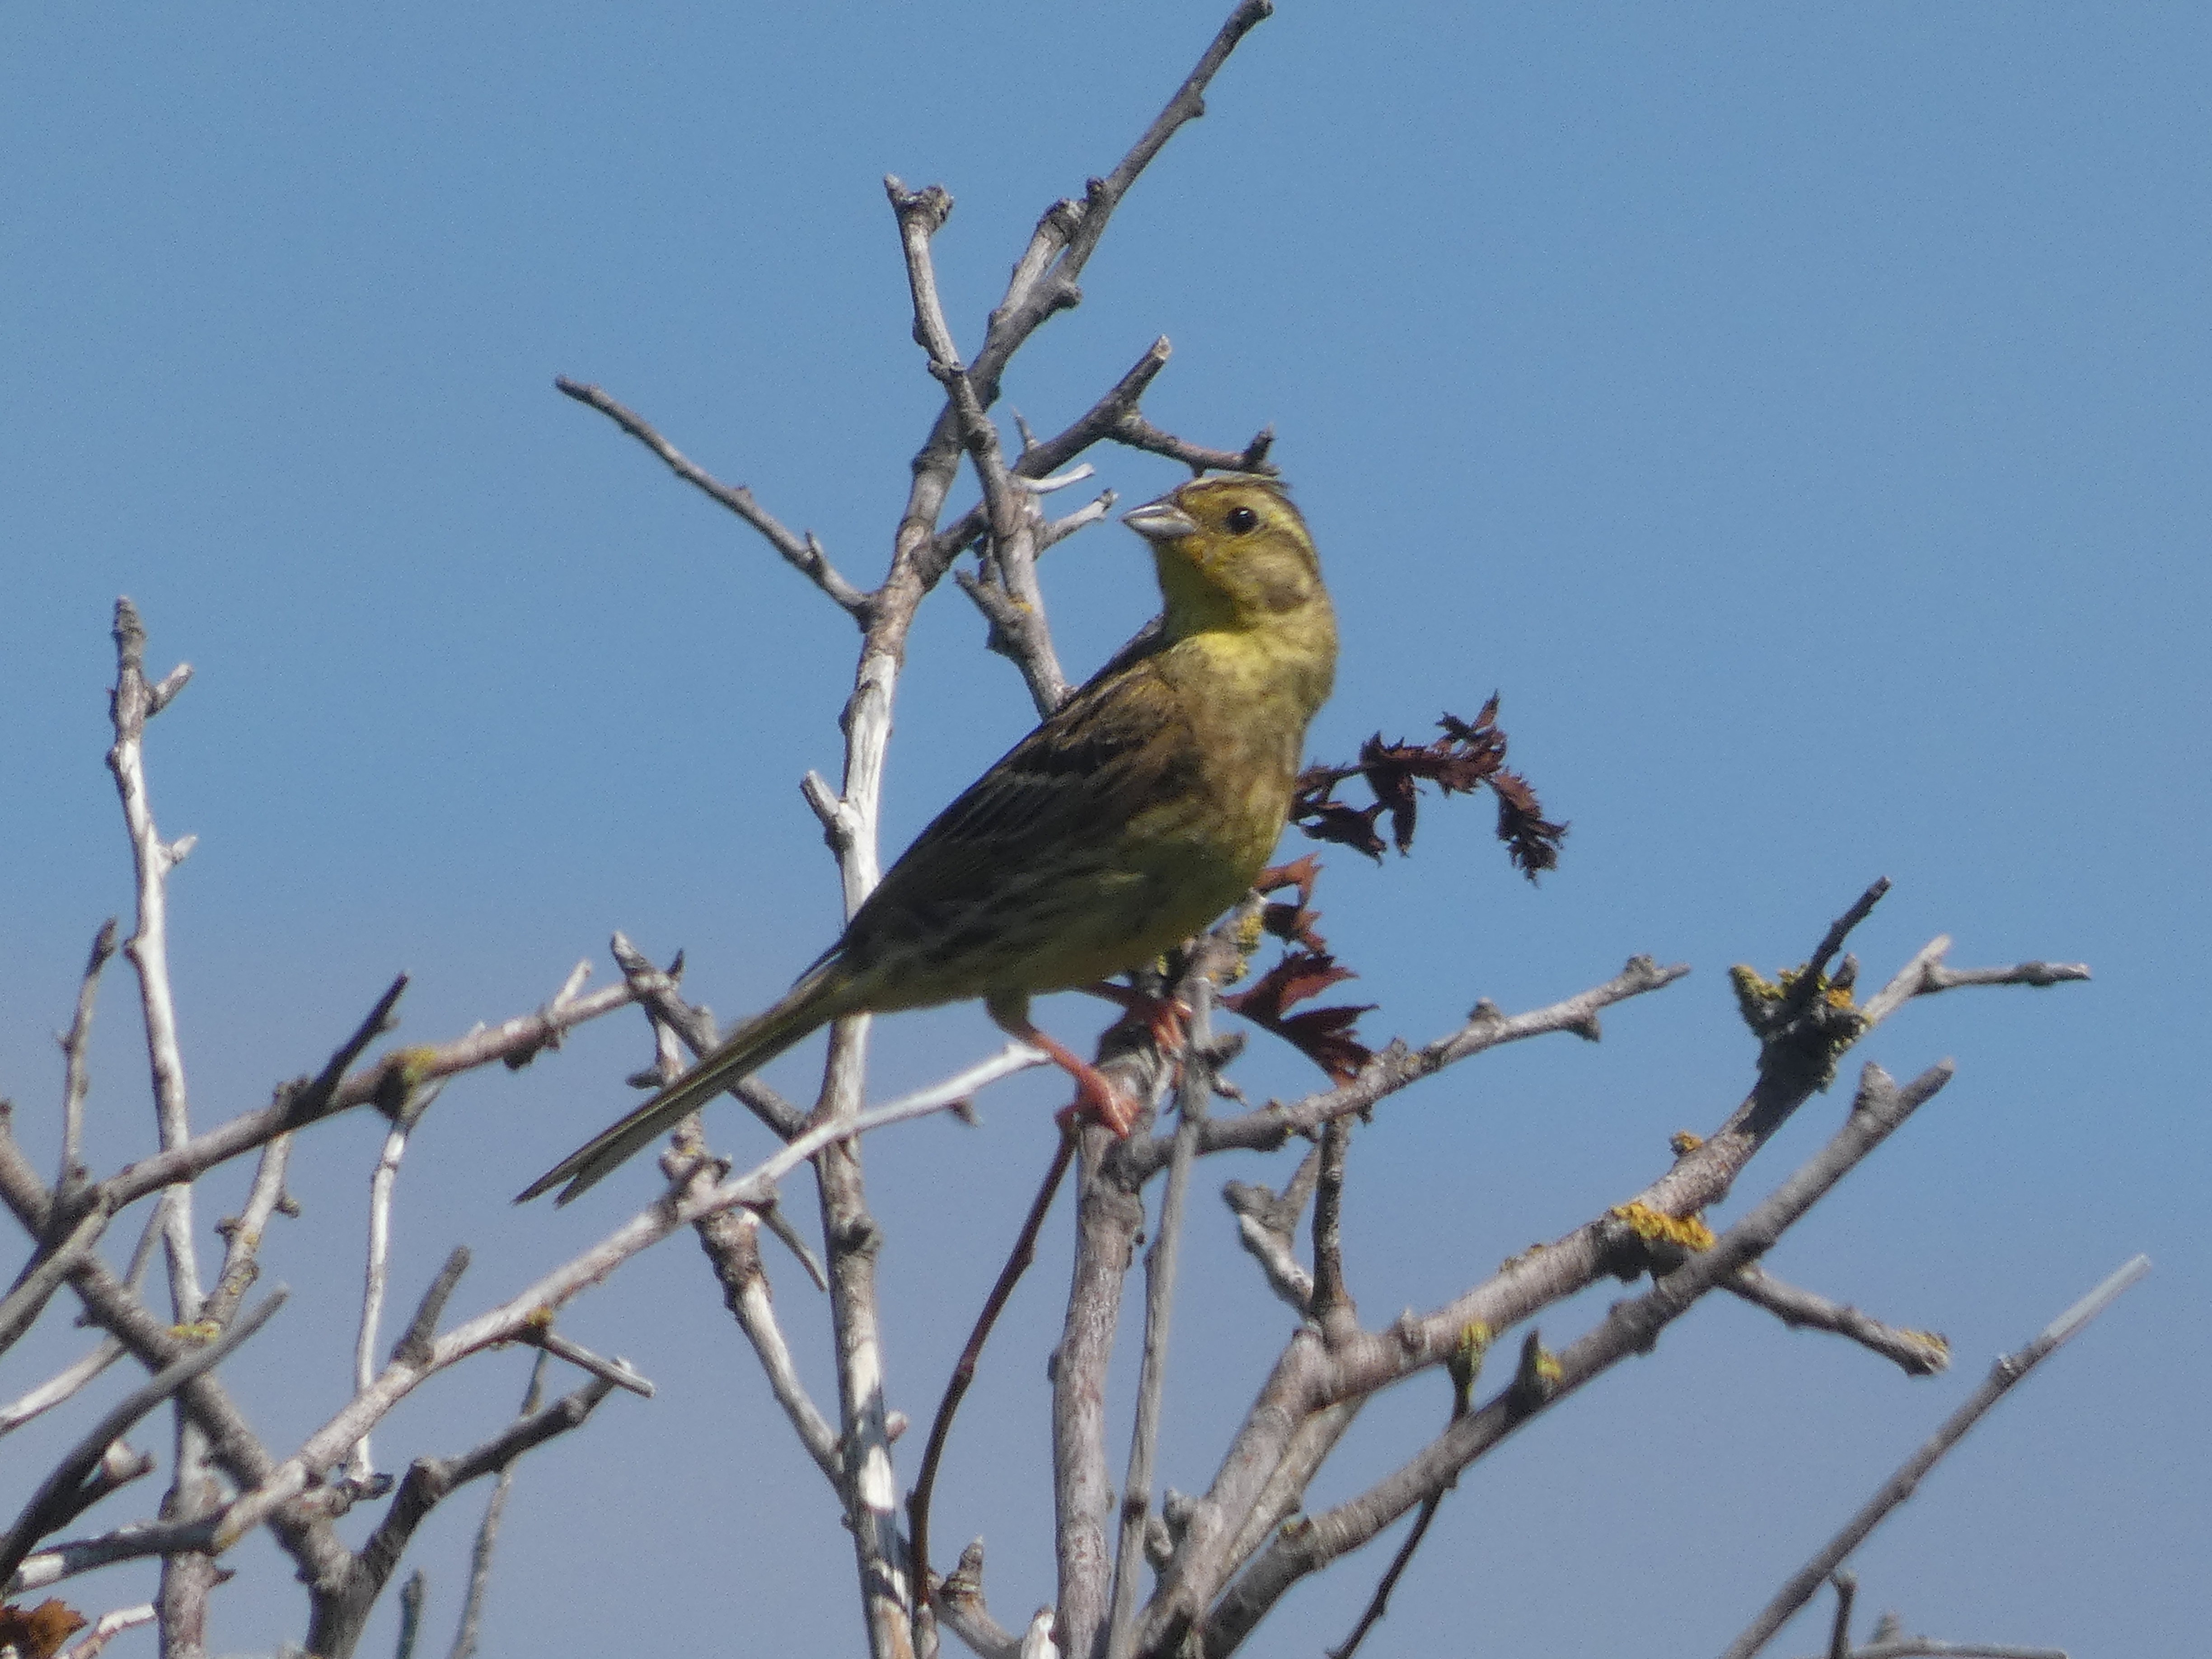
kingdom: Animalia
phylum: Chordata
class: Aves
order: Passeriformes
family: Emberizidae
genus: Emberiza
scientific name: Emberiza citrinella
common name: Gulspurv
